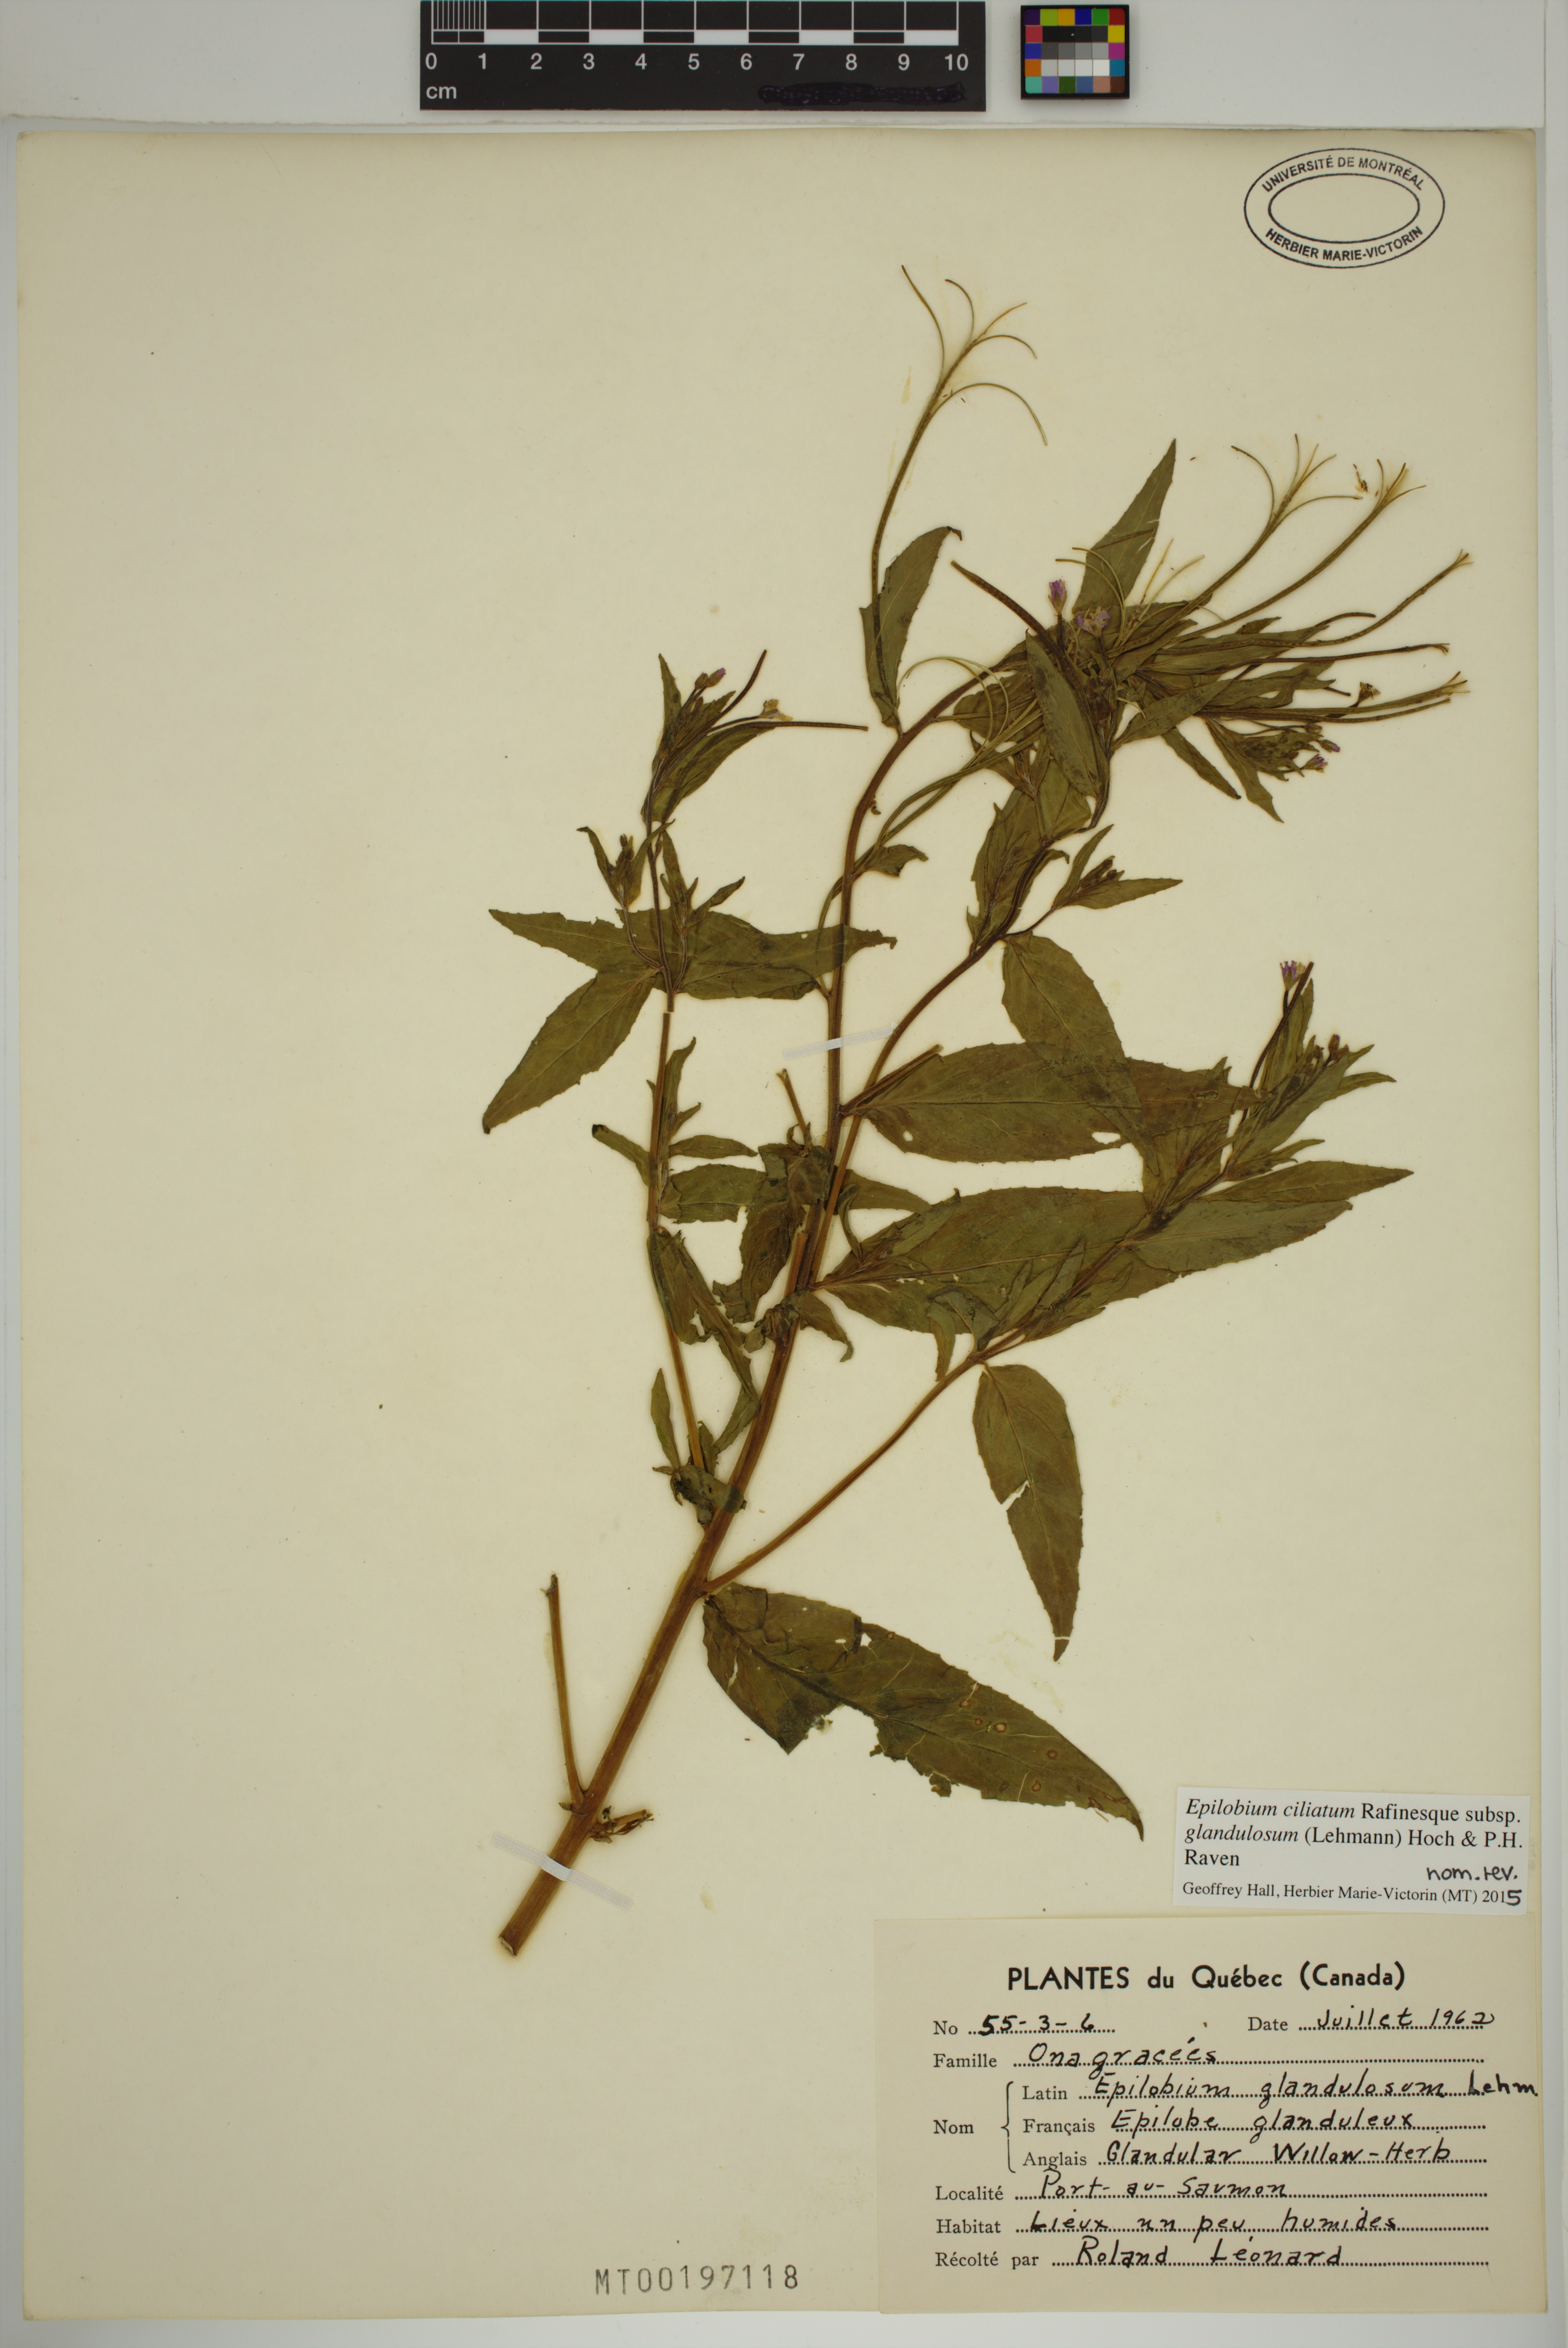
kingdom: Plantae
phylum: Tracheophyta
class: Magnoliopsida
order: Myrtales
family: Onagraceae
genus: Epilobium
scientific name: Epilobium ciliatum
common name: American willowherb
